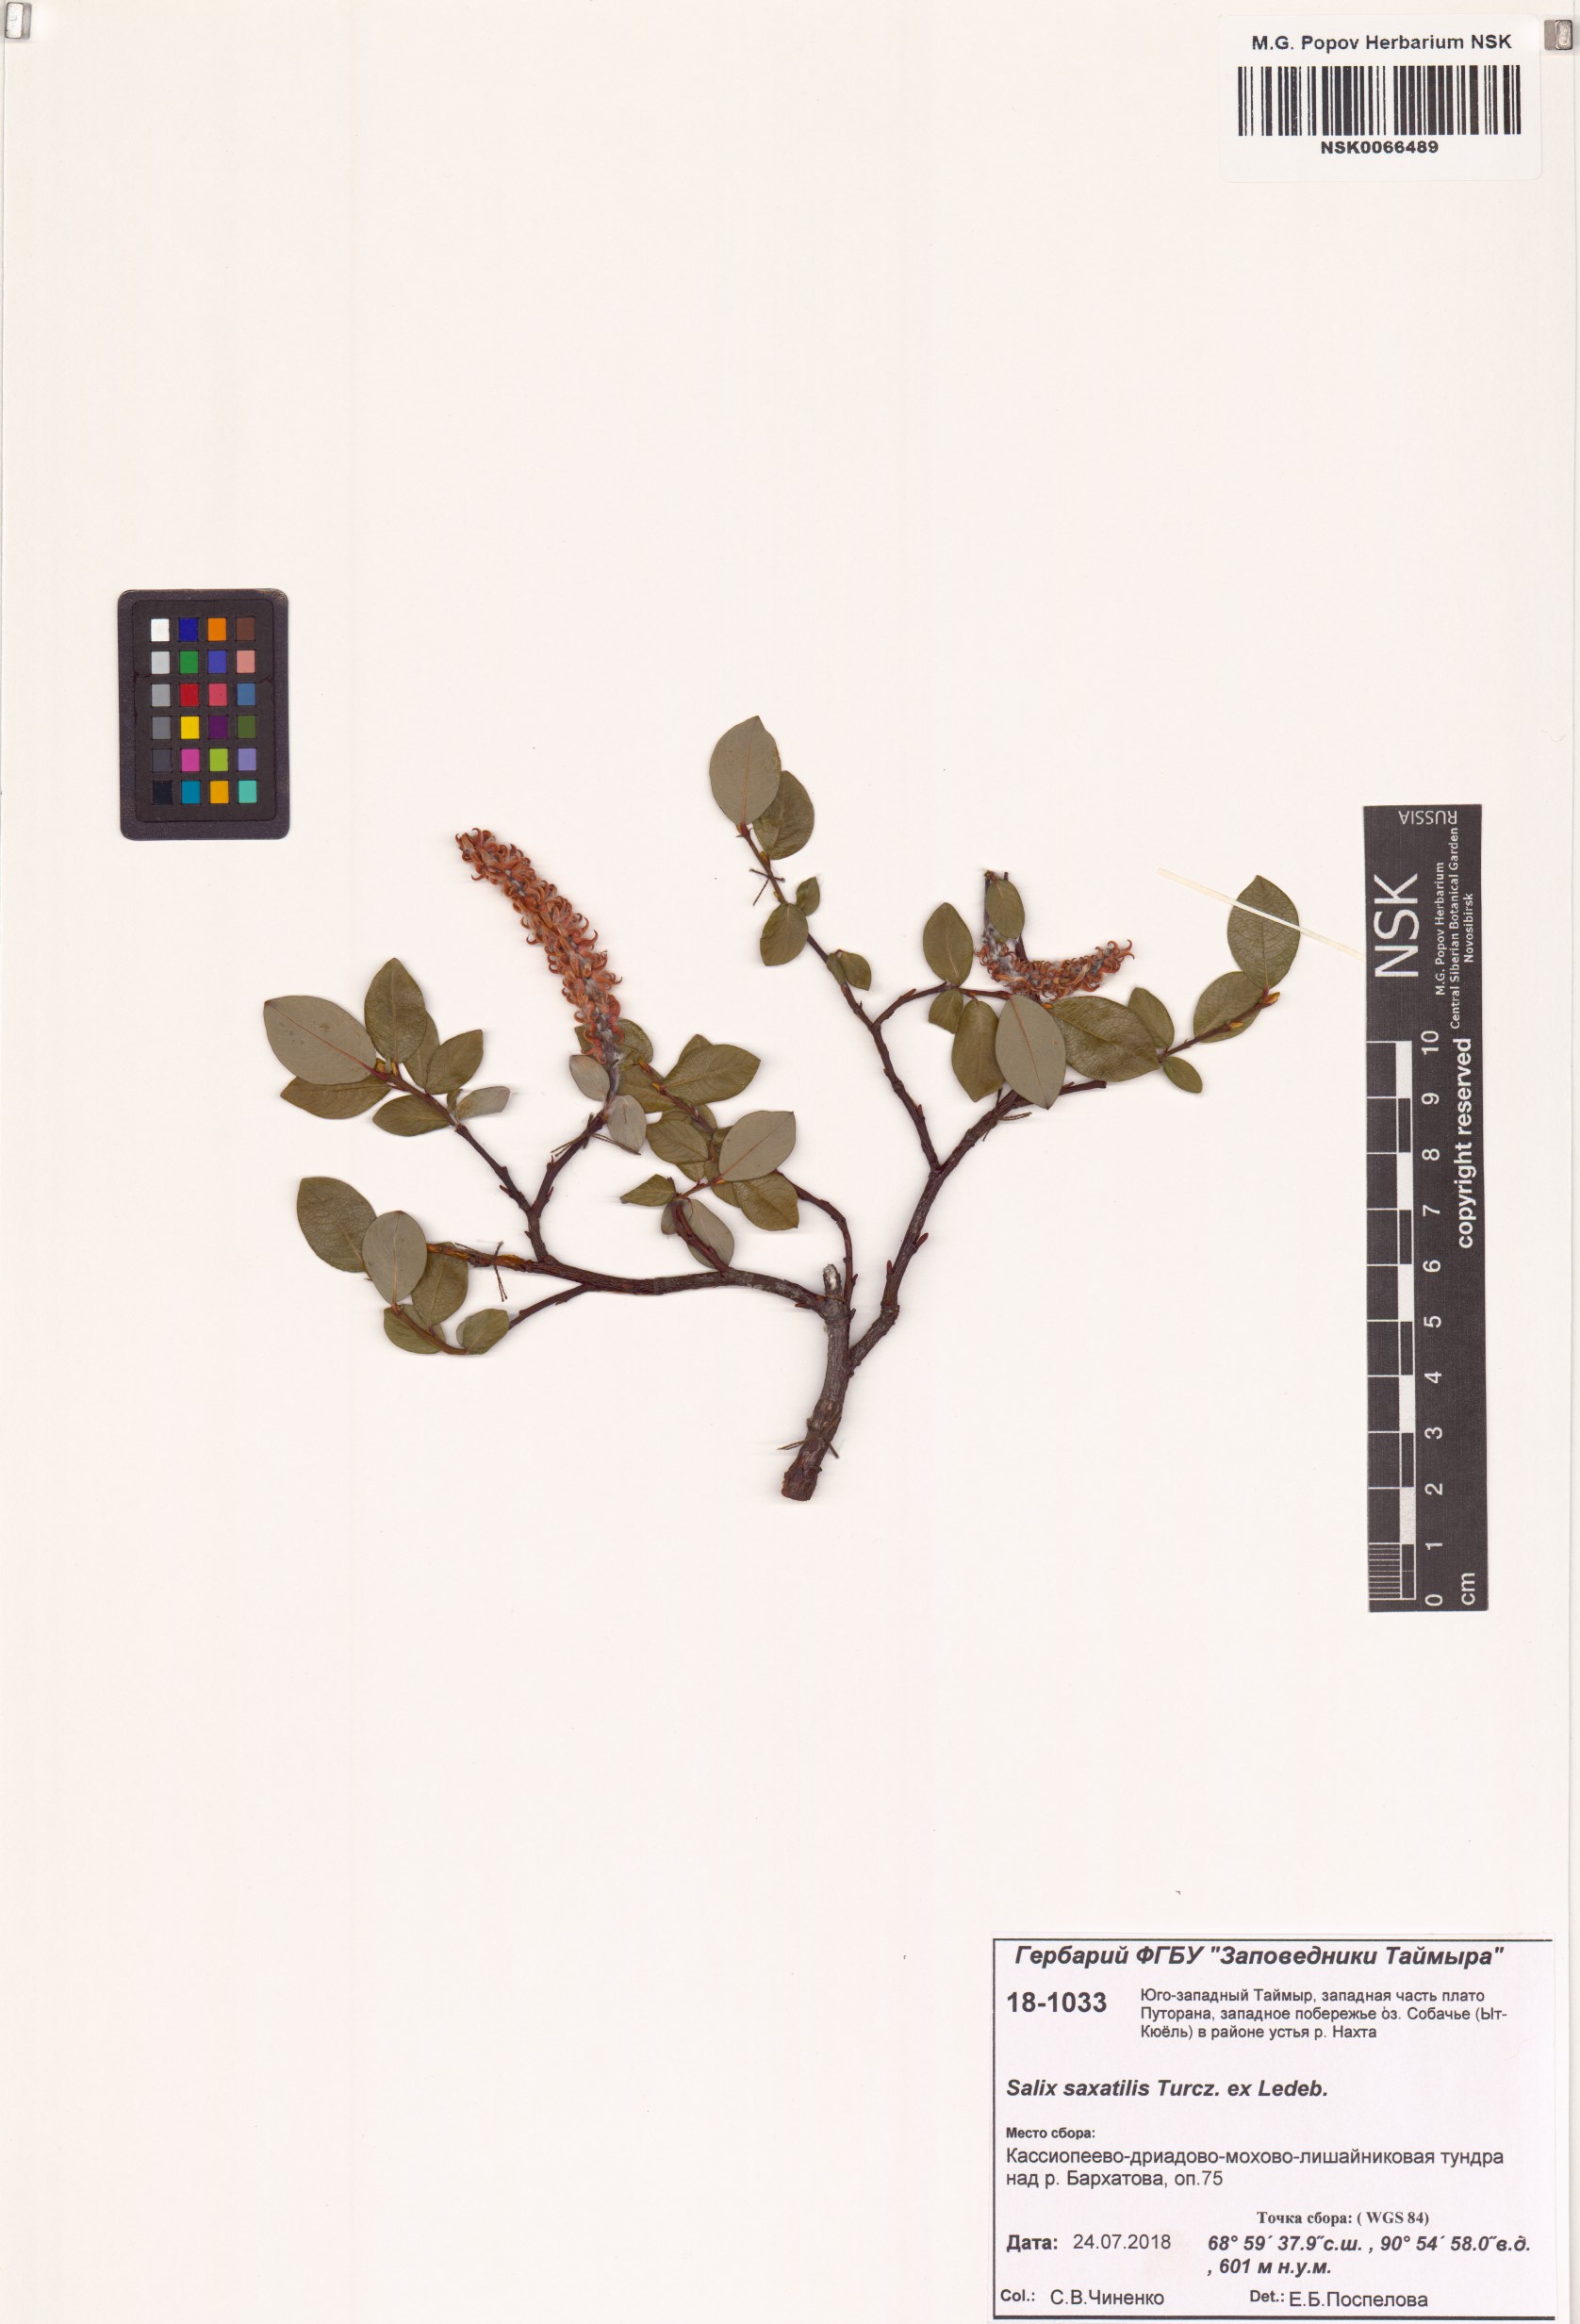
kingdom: Plantae
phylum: Tracheophyta
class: Magnoliopsida
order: Malpighiales
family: Salicaceae
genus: Salix
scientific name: Salix saxatilis
